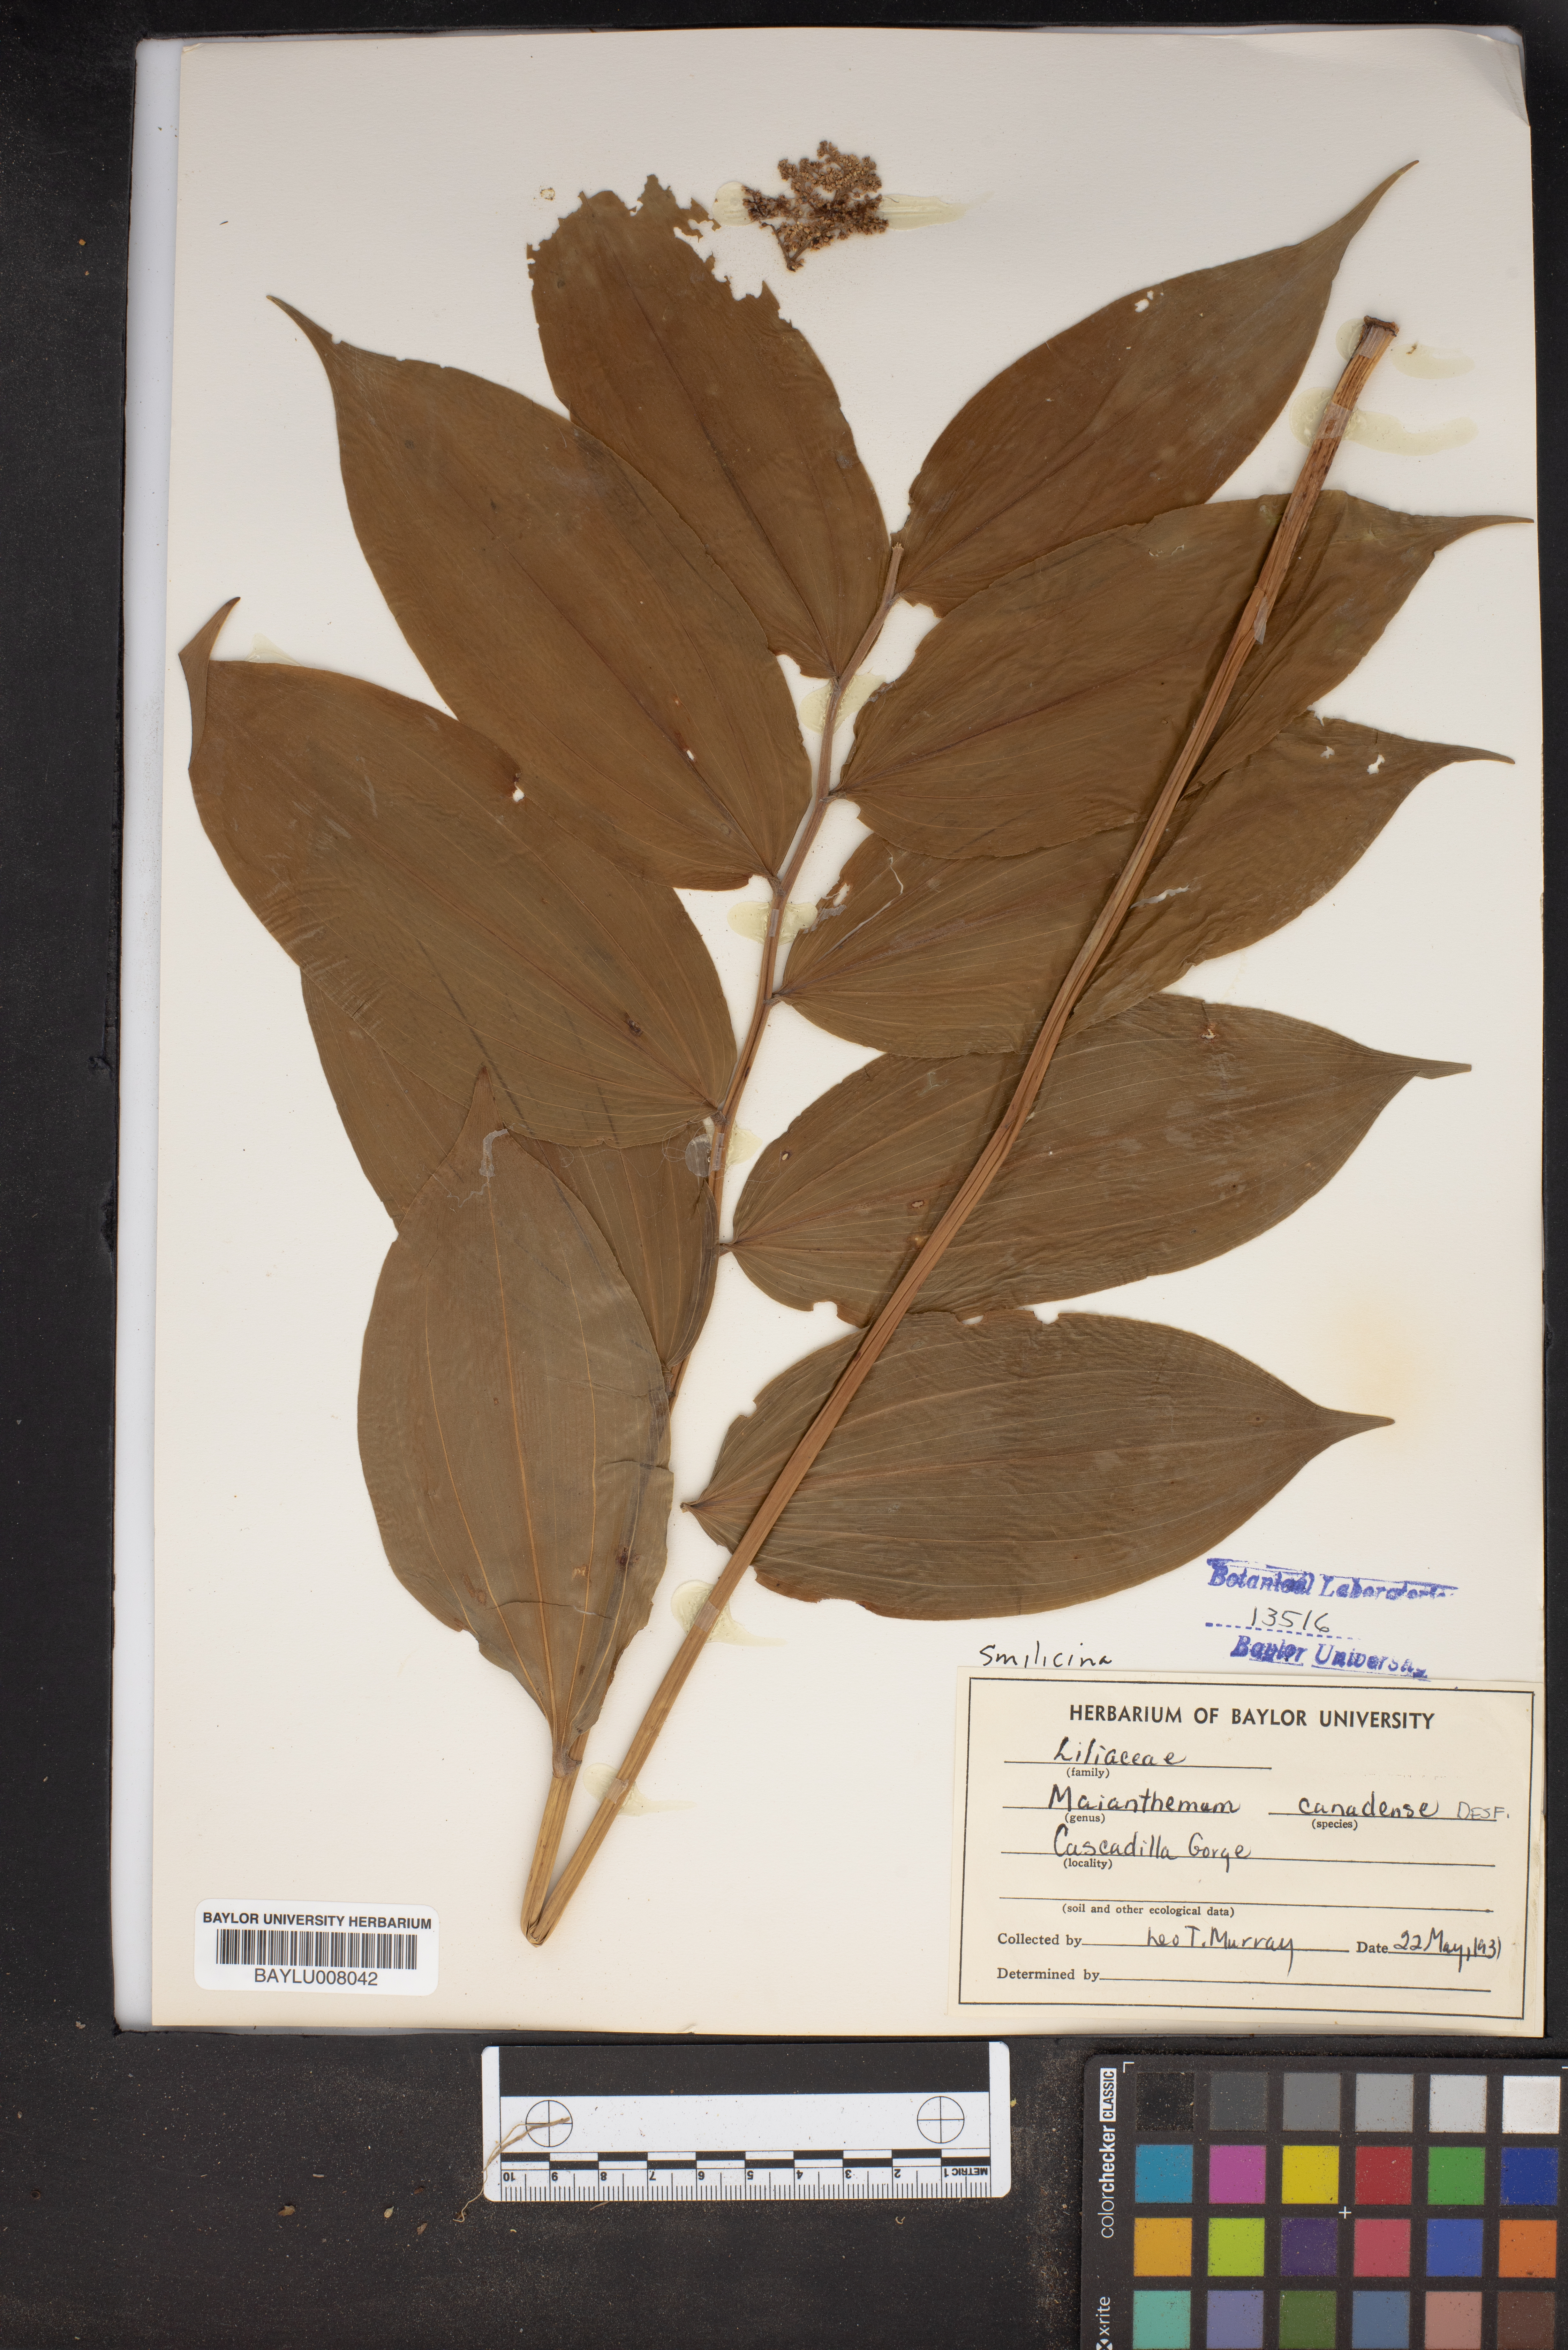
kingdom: Plantae
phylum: Tracheophyta
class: Liliopsida
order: Asparagales
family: Asparagaceae
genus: Maianthemum
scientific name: Maianthemum canadense
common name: False lily-of-the-valley
